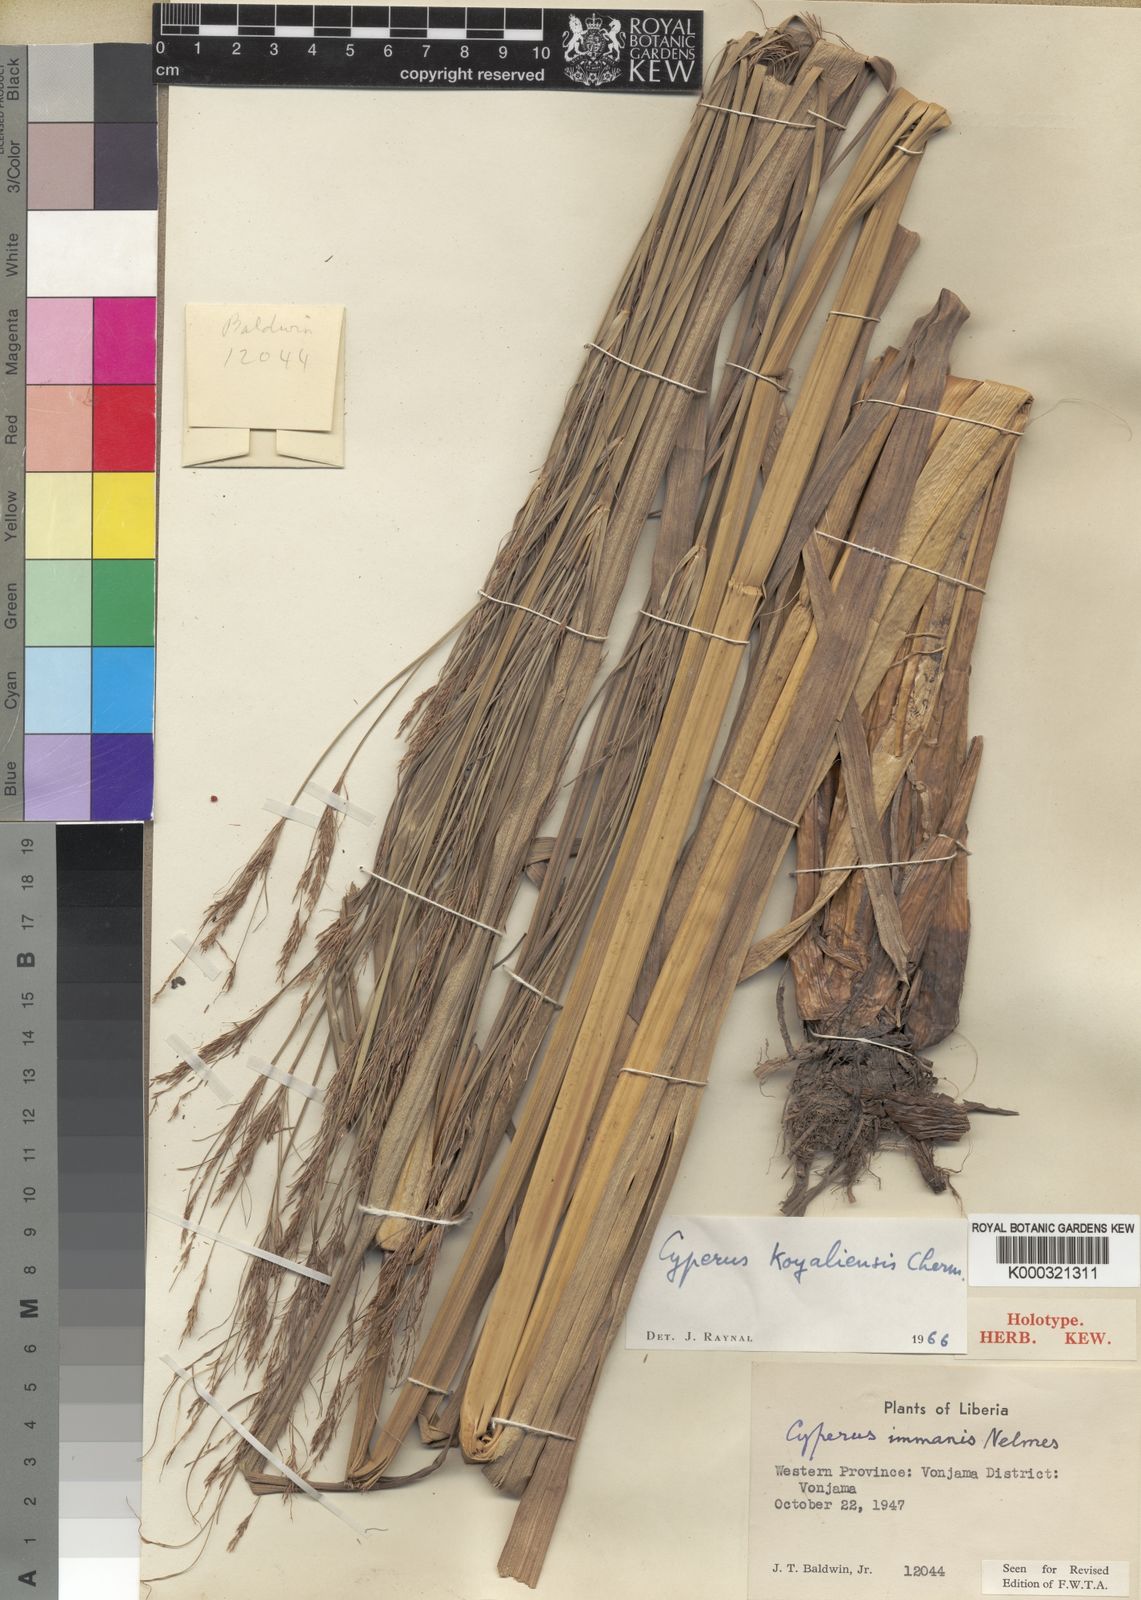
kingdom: Plantae
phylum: Tracheophyta
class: Liliopsida
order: Poales
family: Cyperaceae
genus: Cyperus
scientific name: Cyperus koyaliensis
